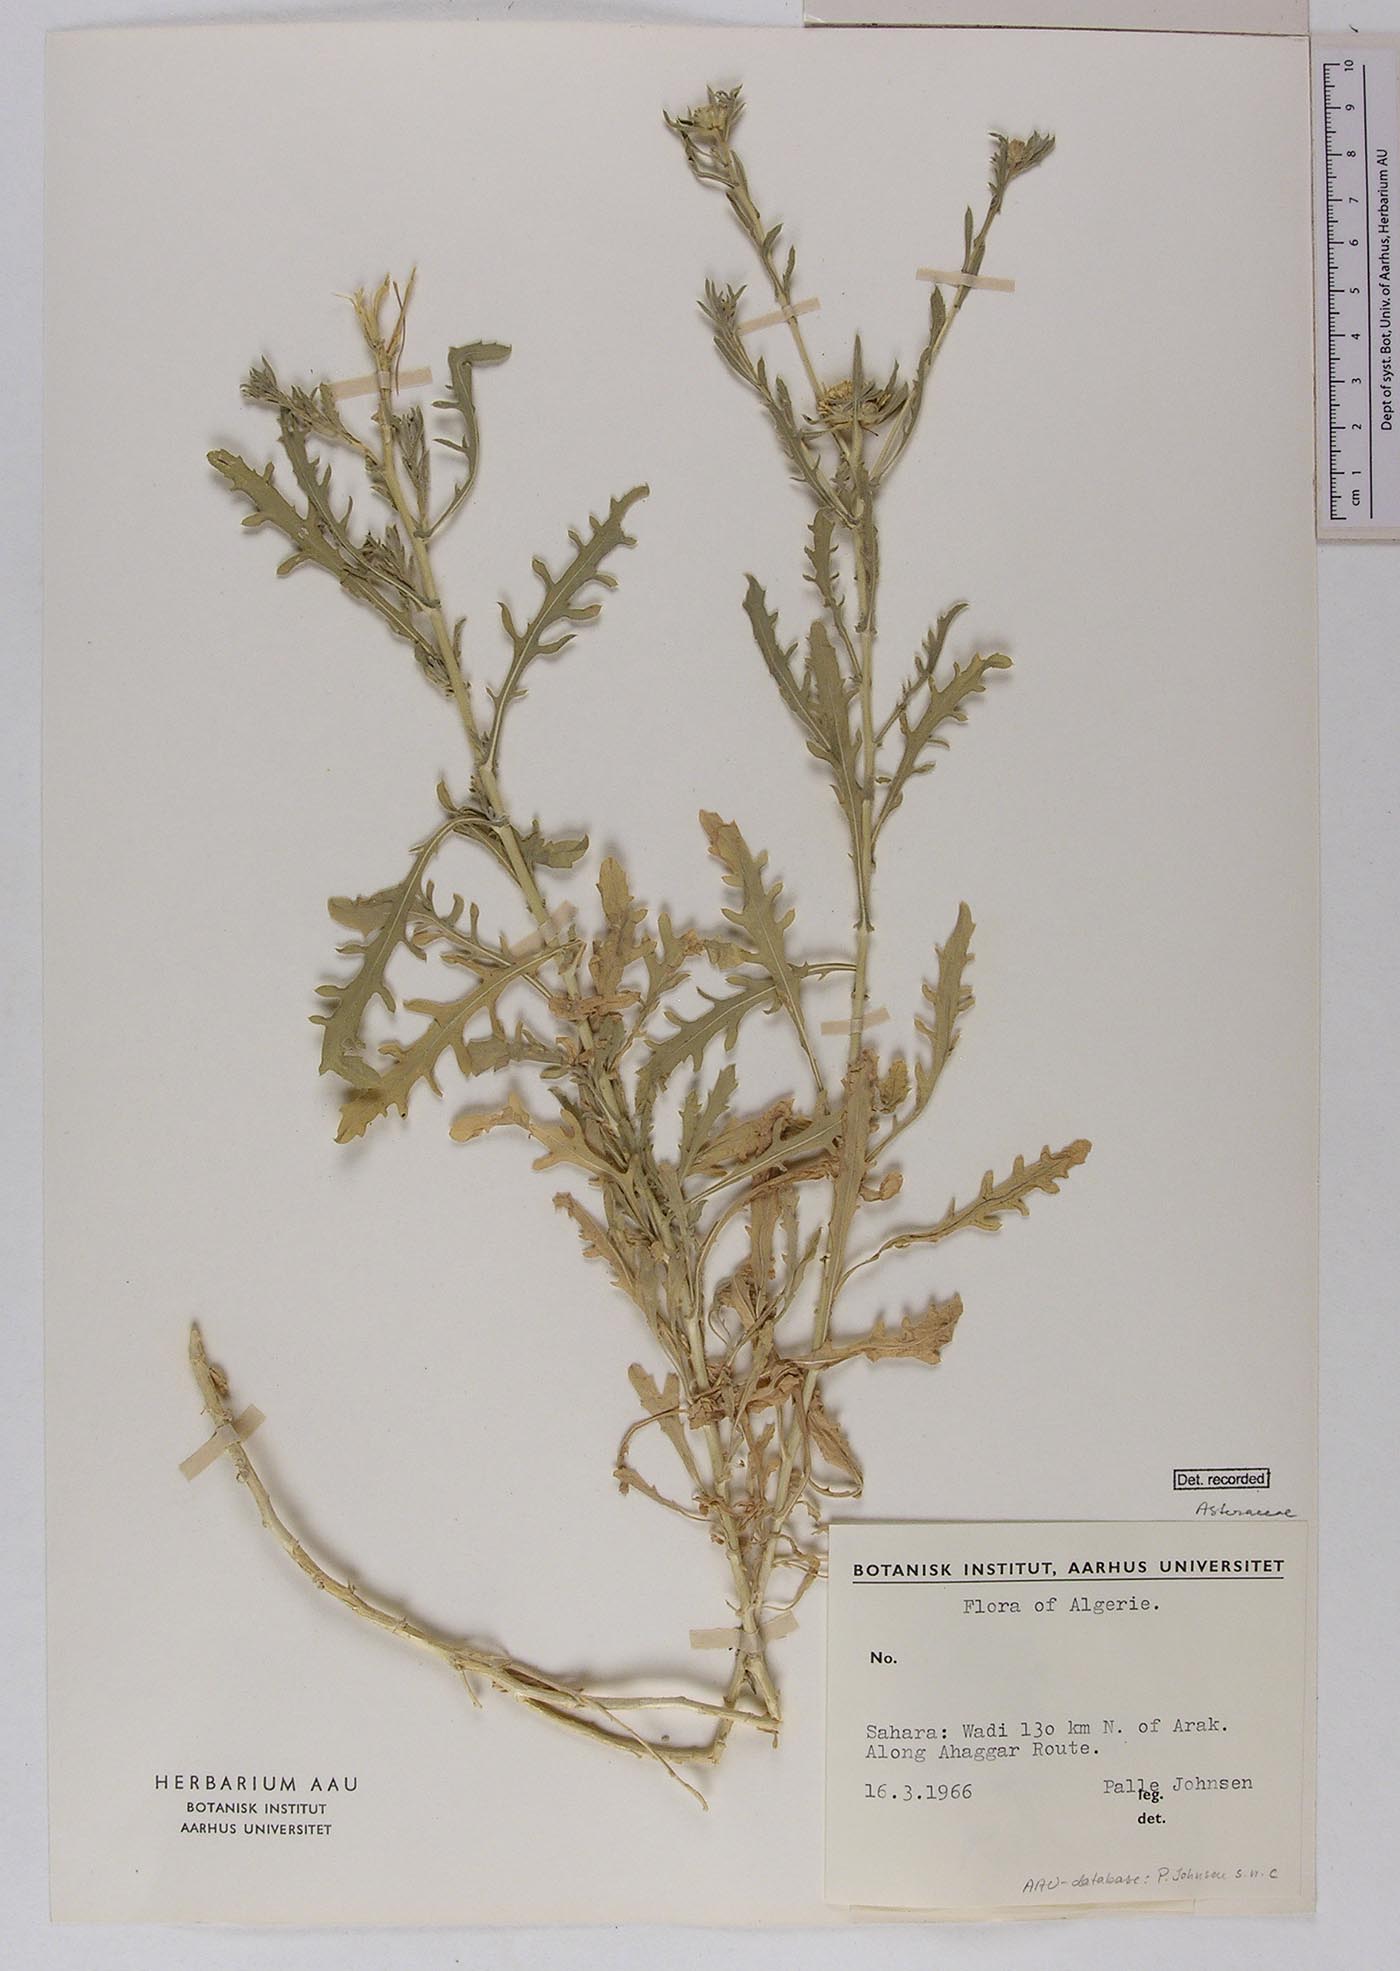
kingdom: Plantae
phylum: Tracheophyta
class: Magnoliopsida
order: Asterales
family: Asteraceae
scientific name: Asteraceae
